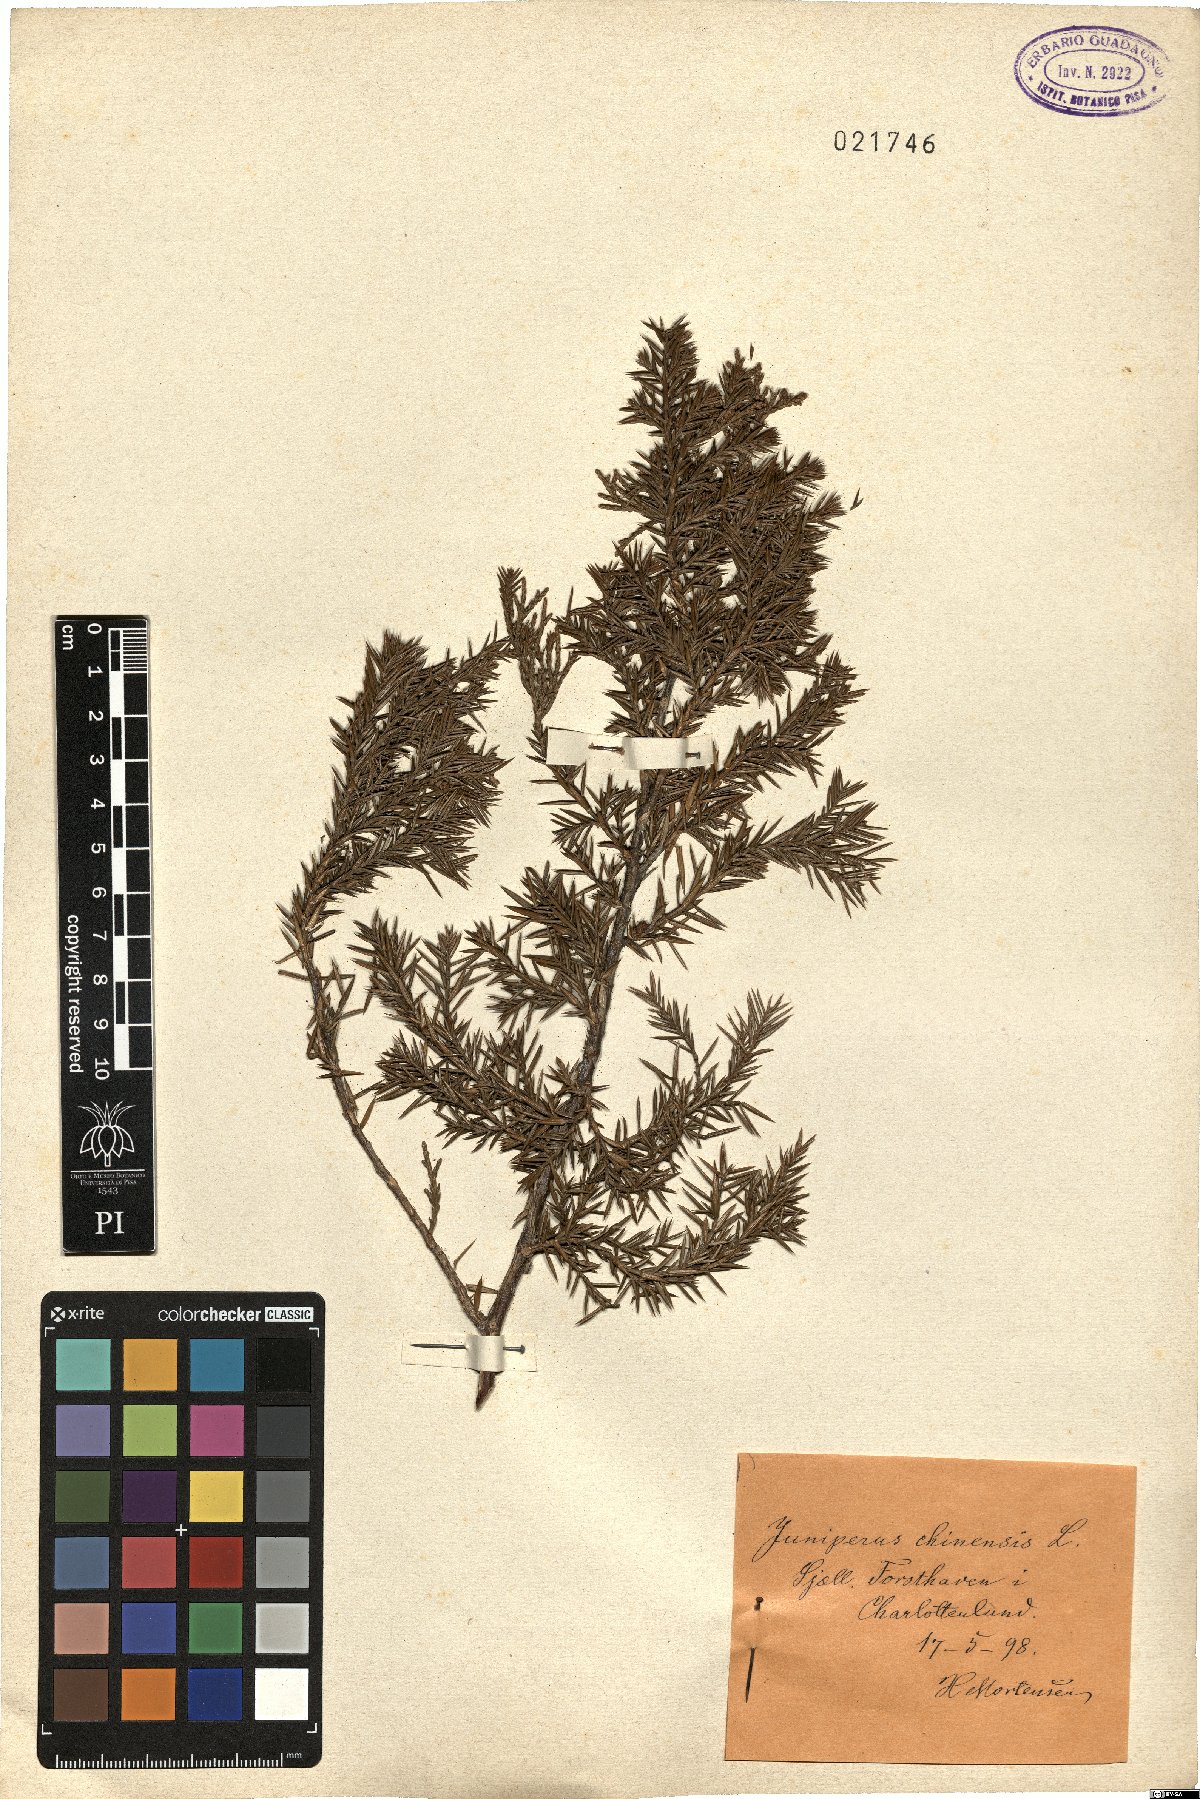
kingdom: Plantae
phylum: Tracheophyta
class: Pinopsida
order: Pinales
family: Cupressaceae
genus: Juniperus
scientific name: Juniperus chinensis
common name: Chinese juniper
